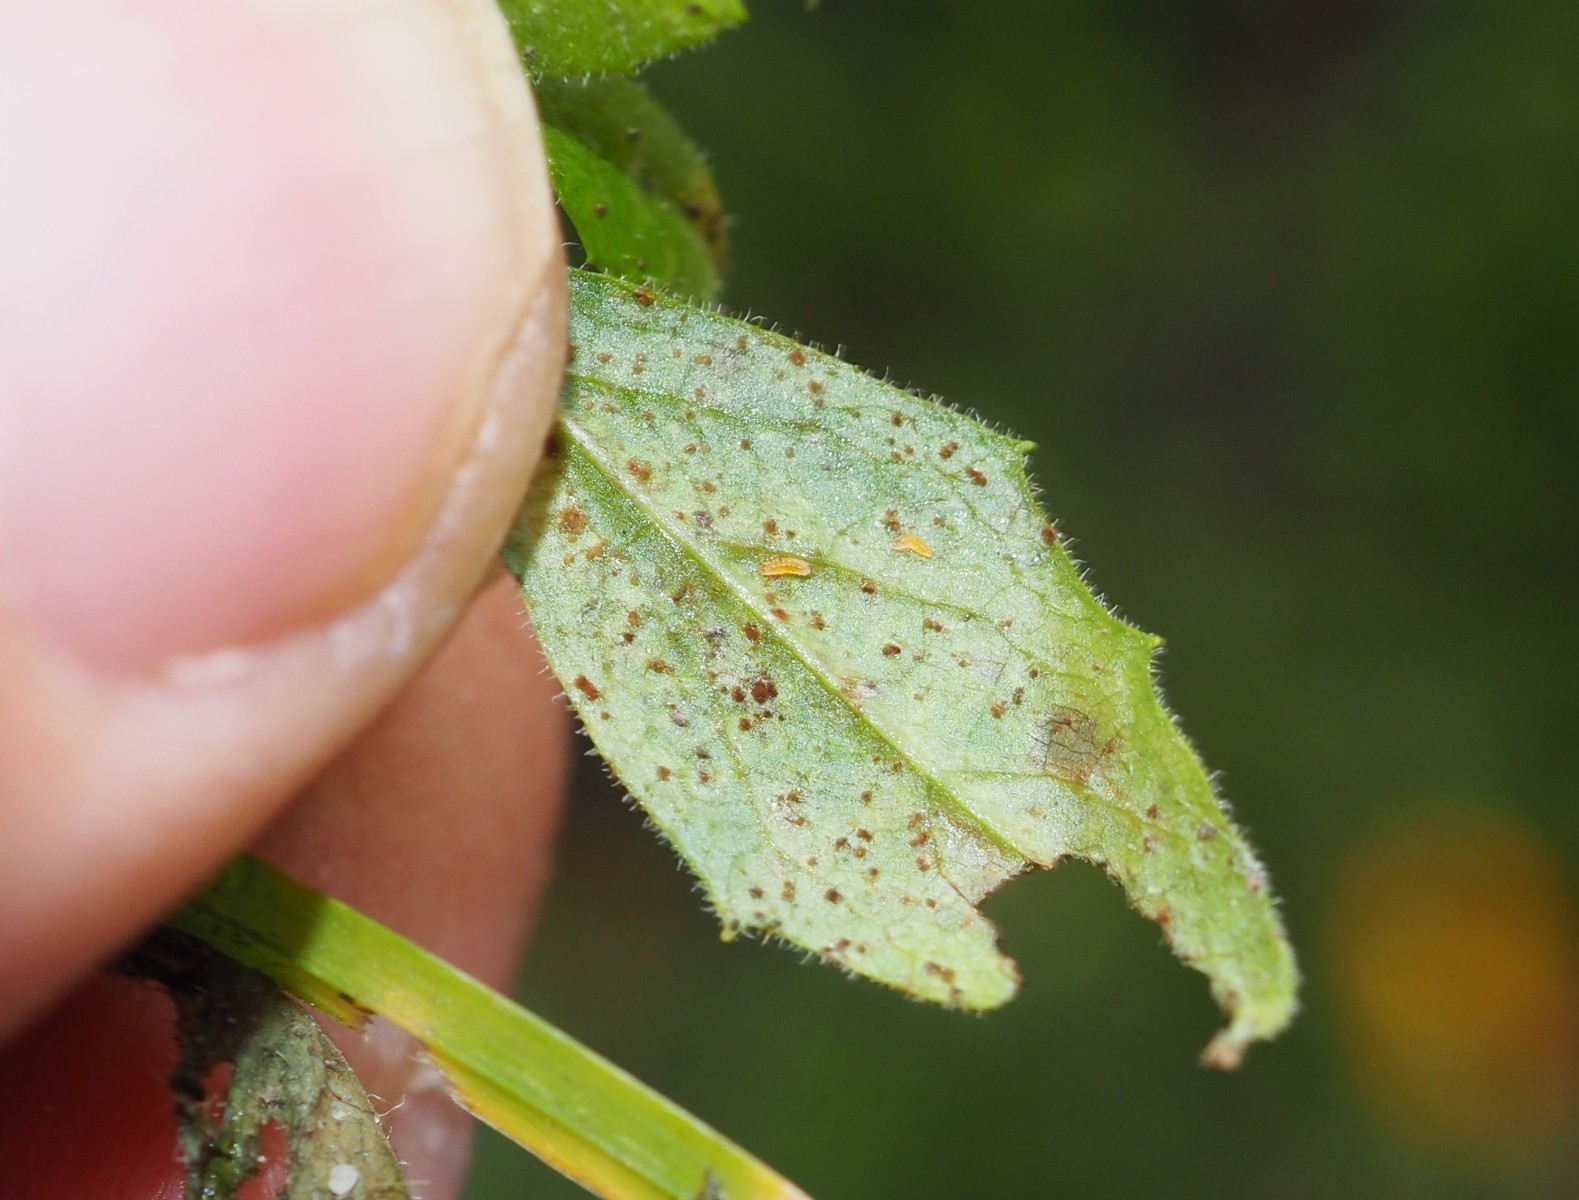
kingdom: Fungi
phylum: Basidiomycota
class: Pucciniomycetes
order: Pucciniales
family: Pucciniaceae
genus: Puccinia
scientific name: Puccinia lapsanae
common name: Nipplewort rust
